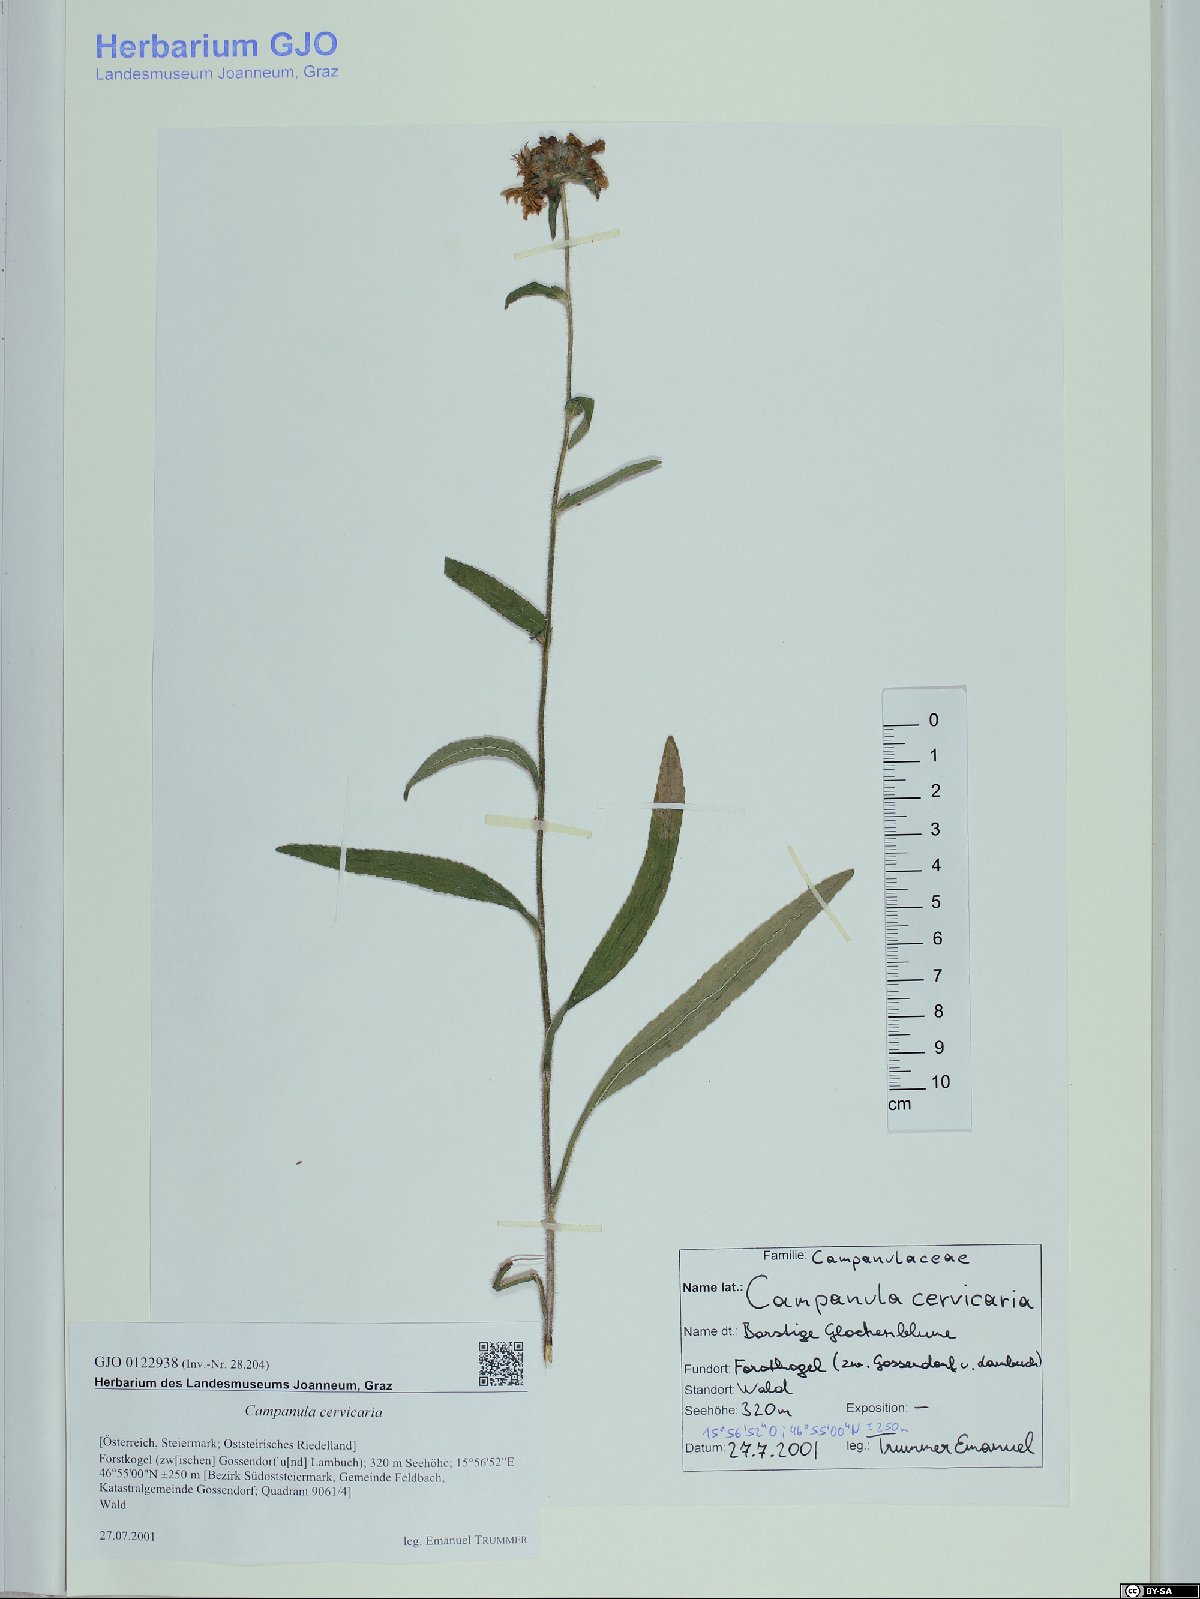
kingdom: Plantae
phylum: Tracheophyta
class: Magnoliopsida
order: Asterales
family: Campanulaceae
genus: Campanula
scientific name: Campanula cervicaria
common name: Bristly bellflower
